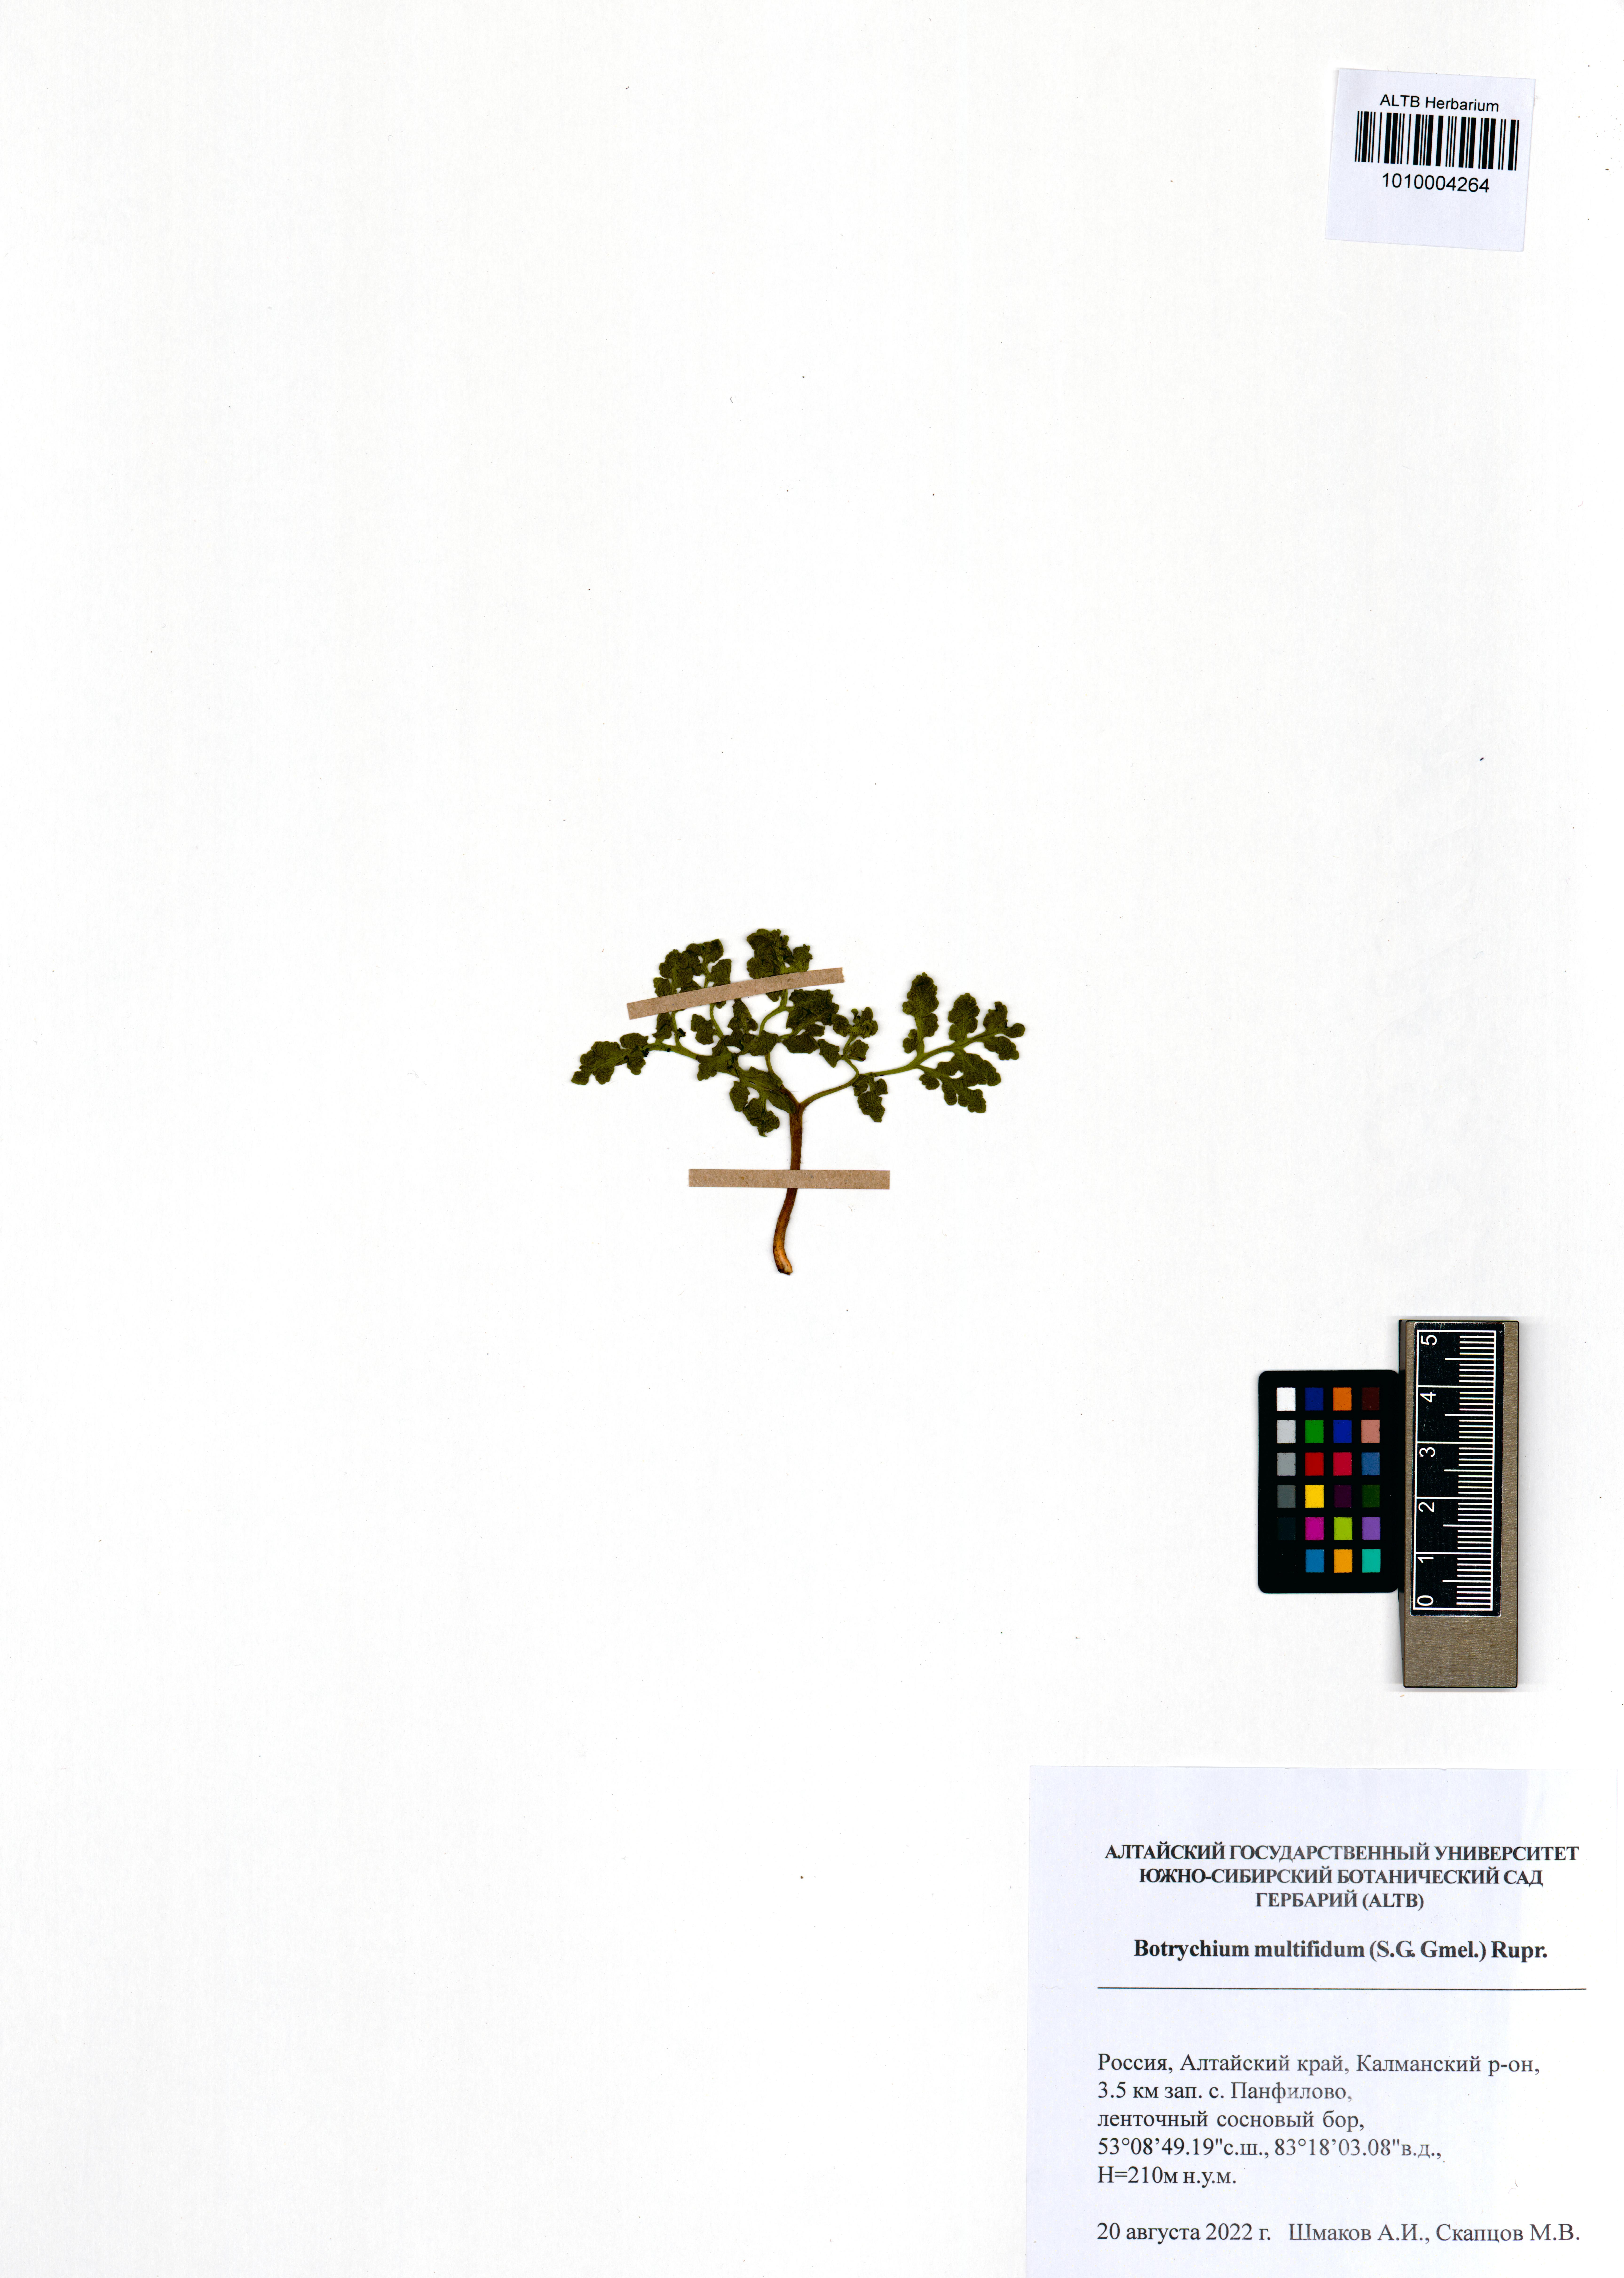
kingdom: Plantae
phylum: Tracheophyta
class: Polypodiopsida
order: Ophioglossales
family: Ophioglossaceae
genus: Sceptridium
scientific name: Sceptridium multifidum
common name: Leathery grape fern
